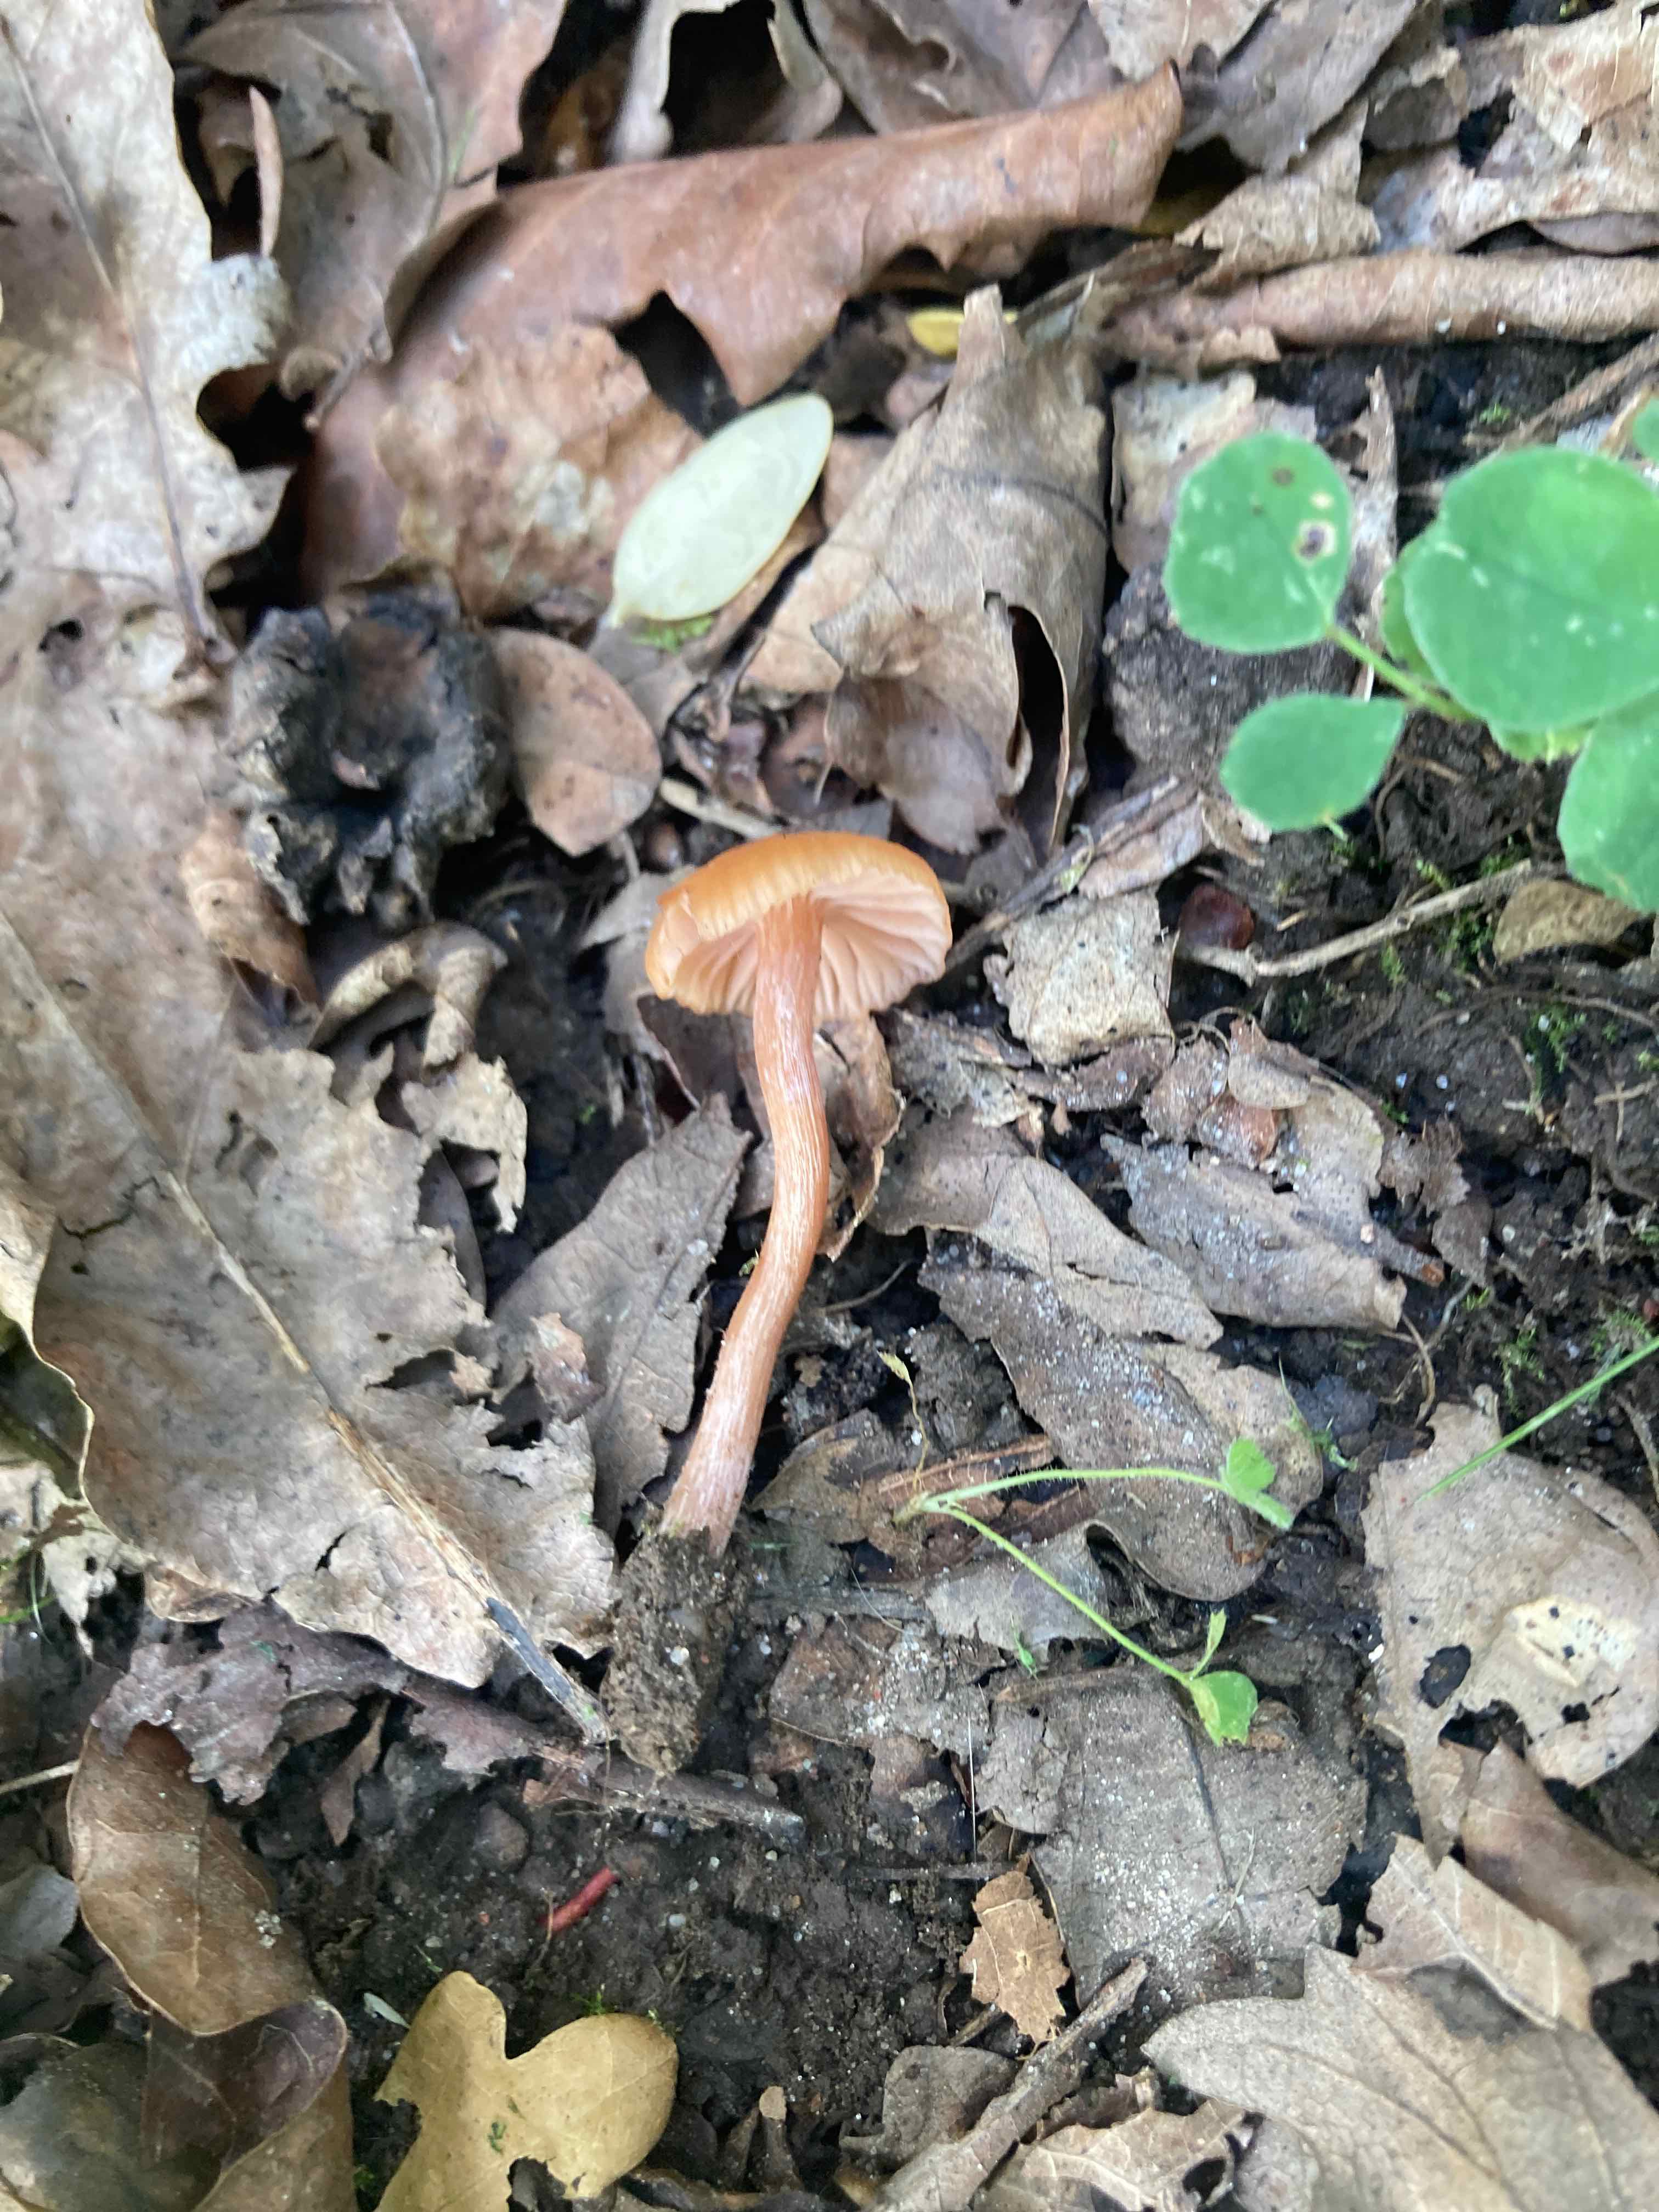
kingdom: Fungi
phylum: Basidiomycota
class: Agaricomycetes
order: Agaricales
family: Hydnangiaceae
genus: Laccaria
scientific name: Laccaria laccata
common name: rød ametysthat
